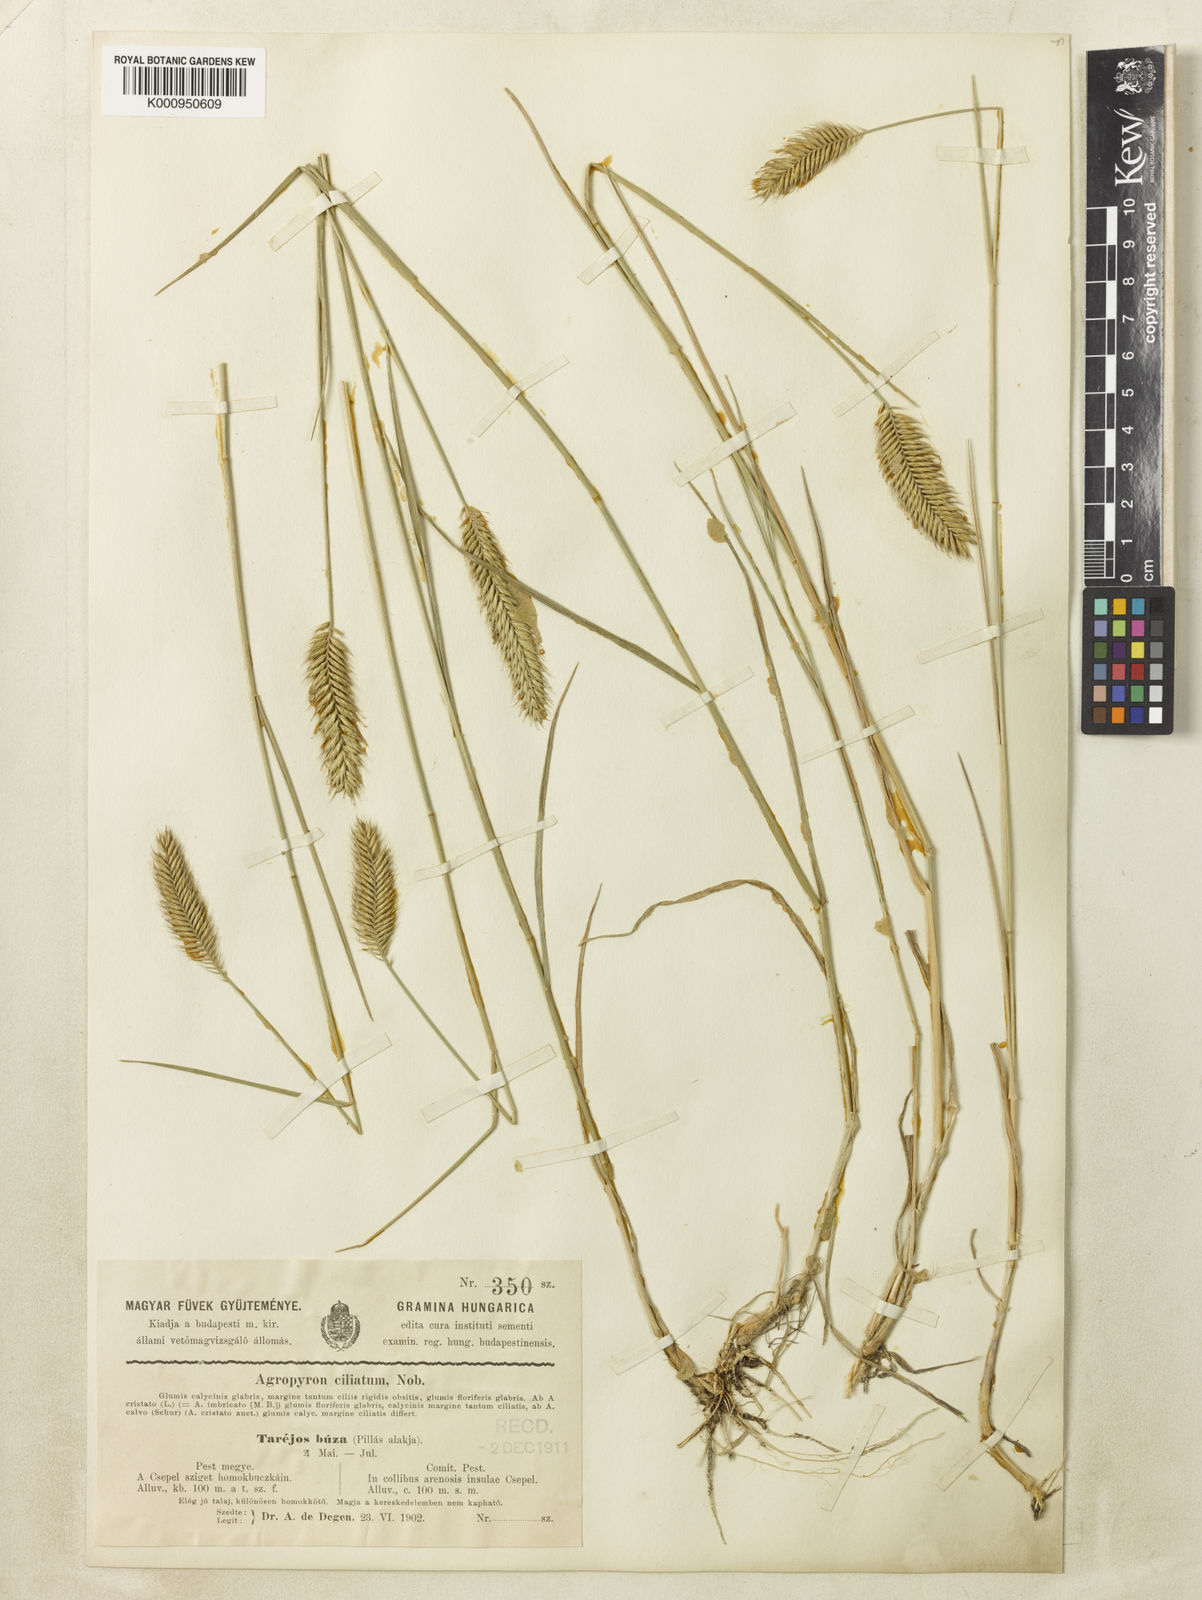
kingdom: Plantae
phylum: Tracheophyta
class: Liliopsida
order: Poales
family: Poaceae
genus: Agropyron
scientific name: Agropyron cristatum
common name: Crested wheatgrass
